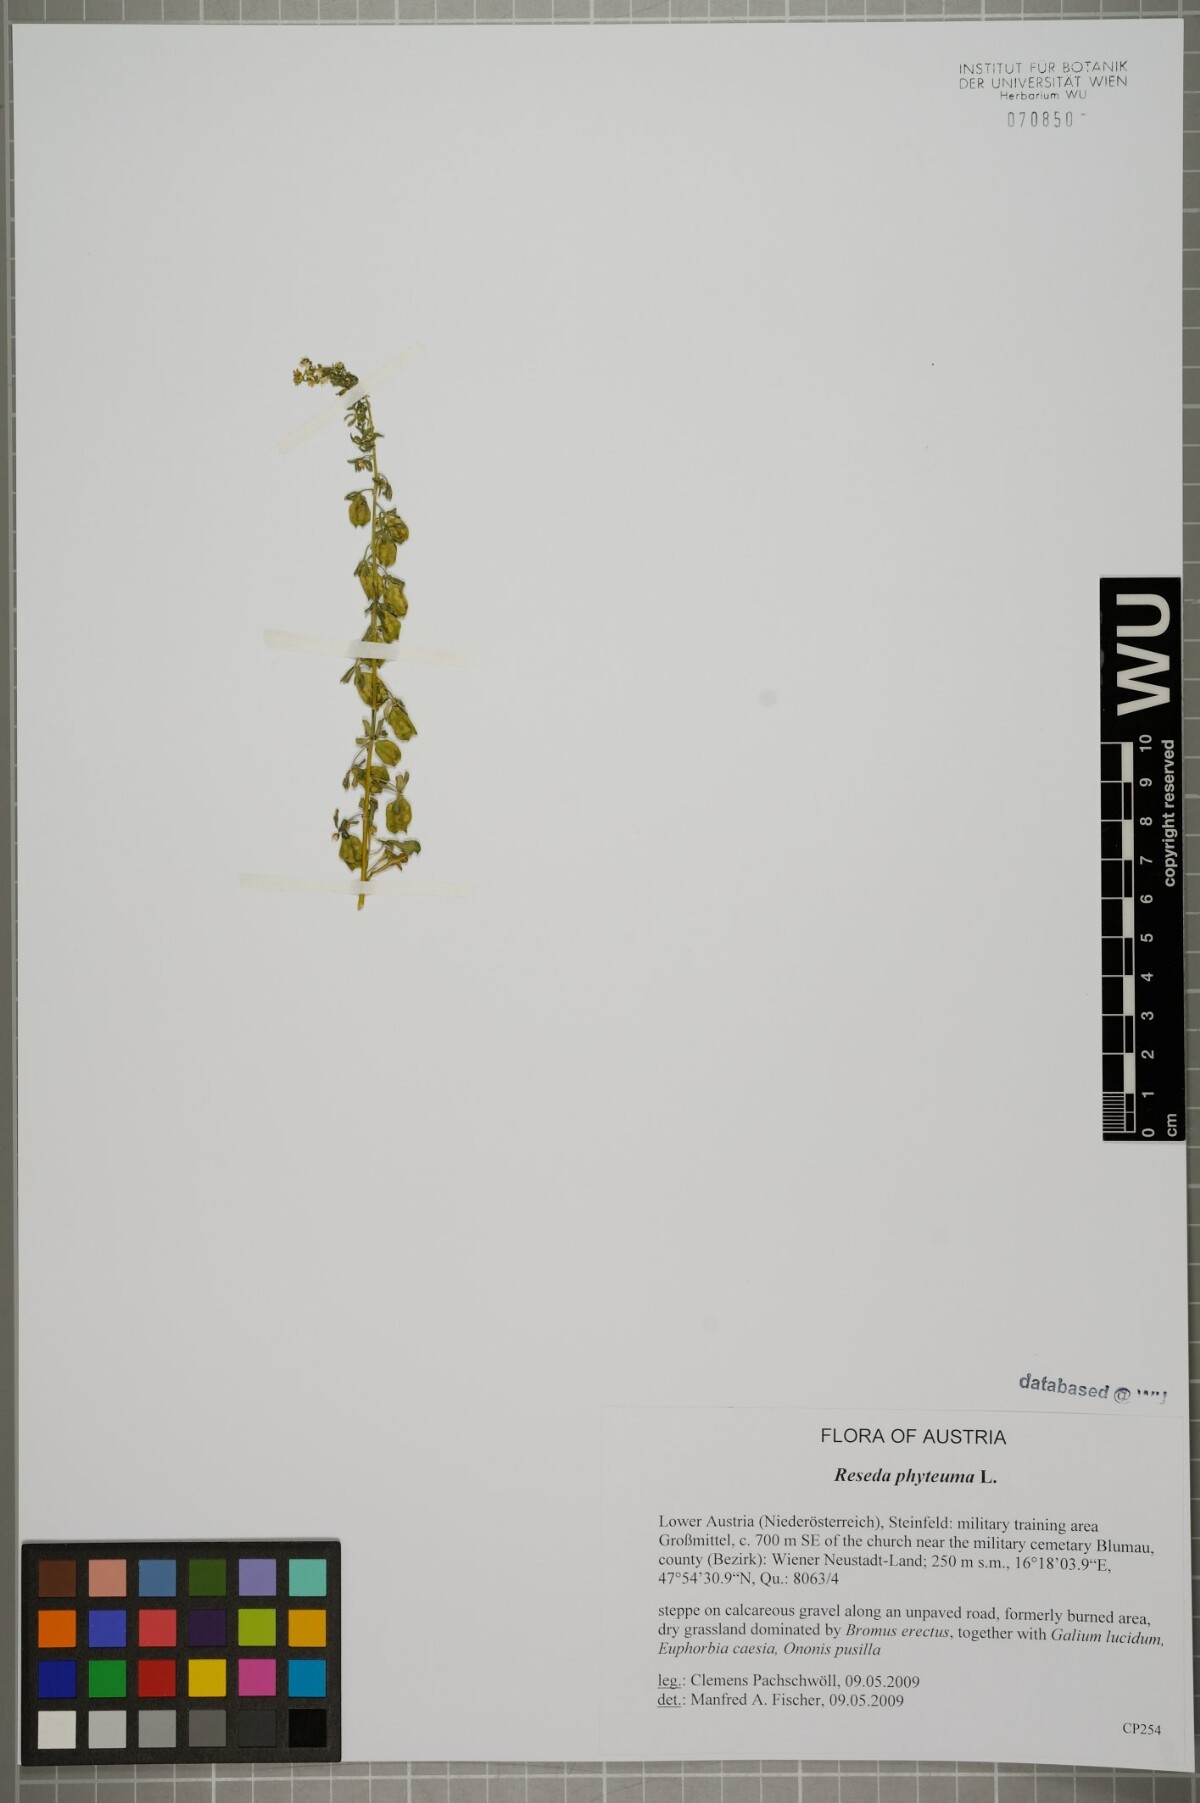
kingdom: Plantae
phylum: Tracheophyta
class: Magnoliopsida
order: Brassicales
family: Resedaceae
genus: Reseda
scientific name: Reseda phyteuma
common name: Corn mignonette
